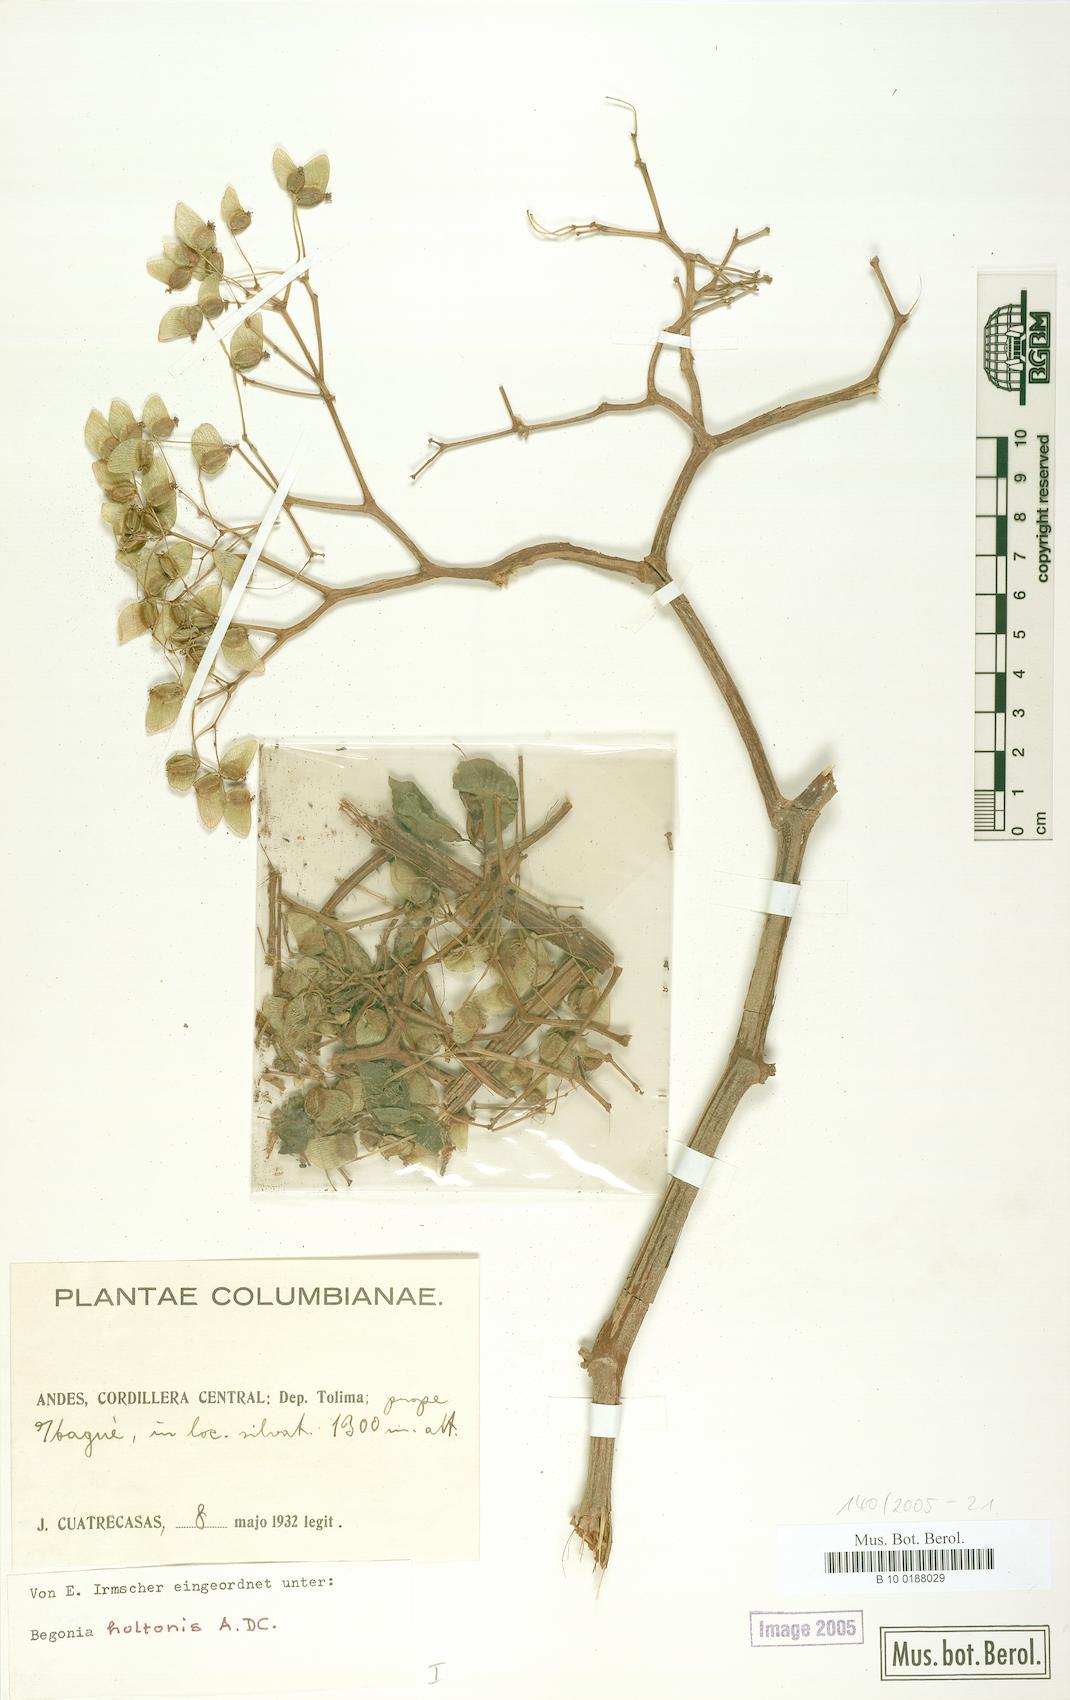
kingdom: Plantae
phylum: Tracheophyta
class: Magnoliopsida
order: Cucurbitales
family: Begoniaceae
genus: Begonia
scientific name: Begonia holtonis
